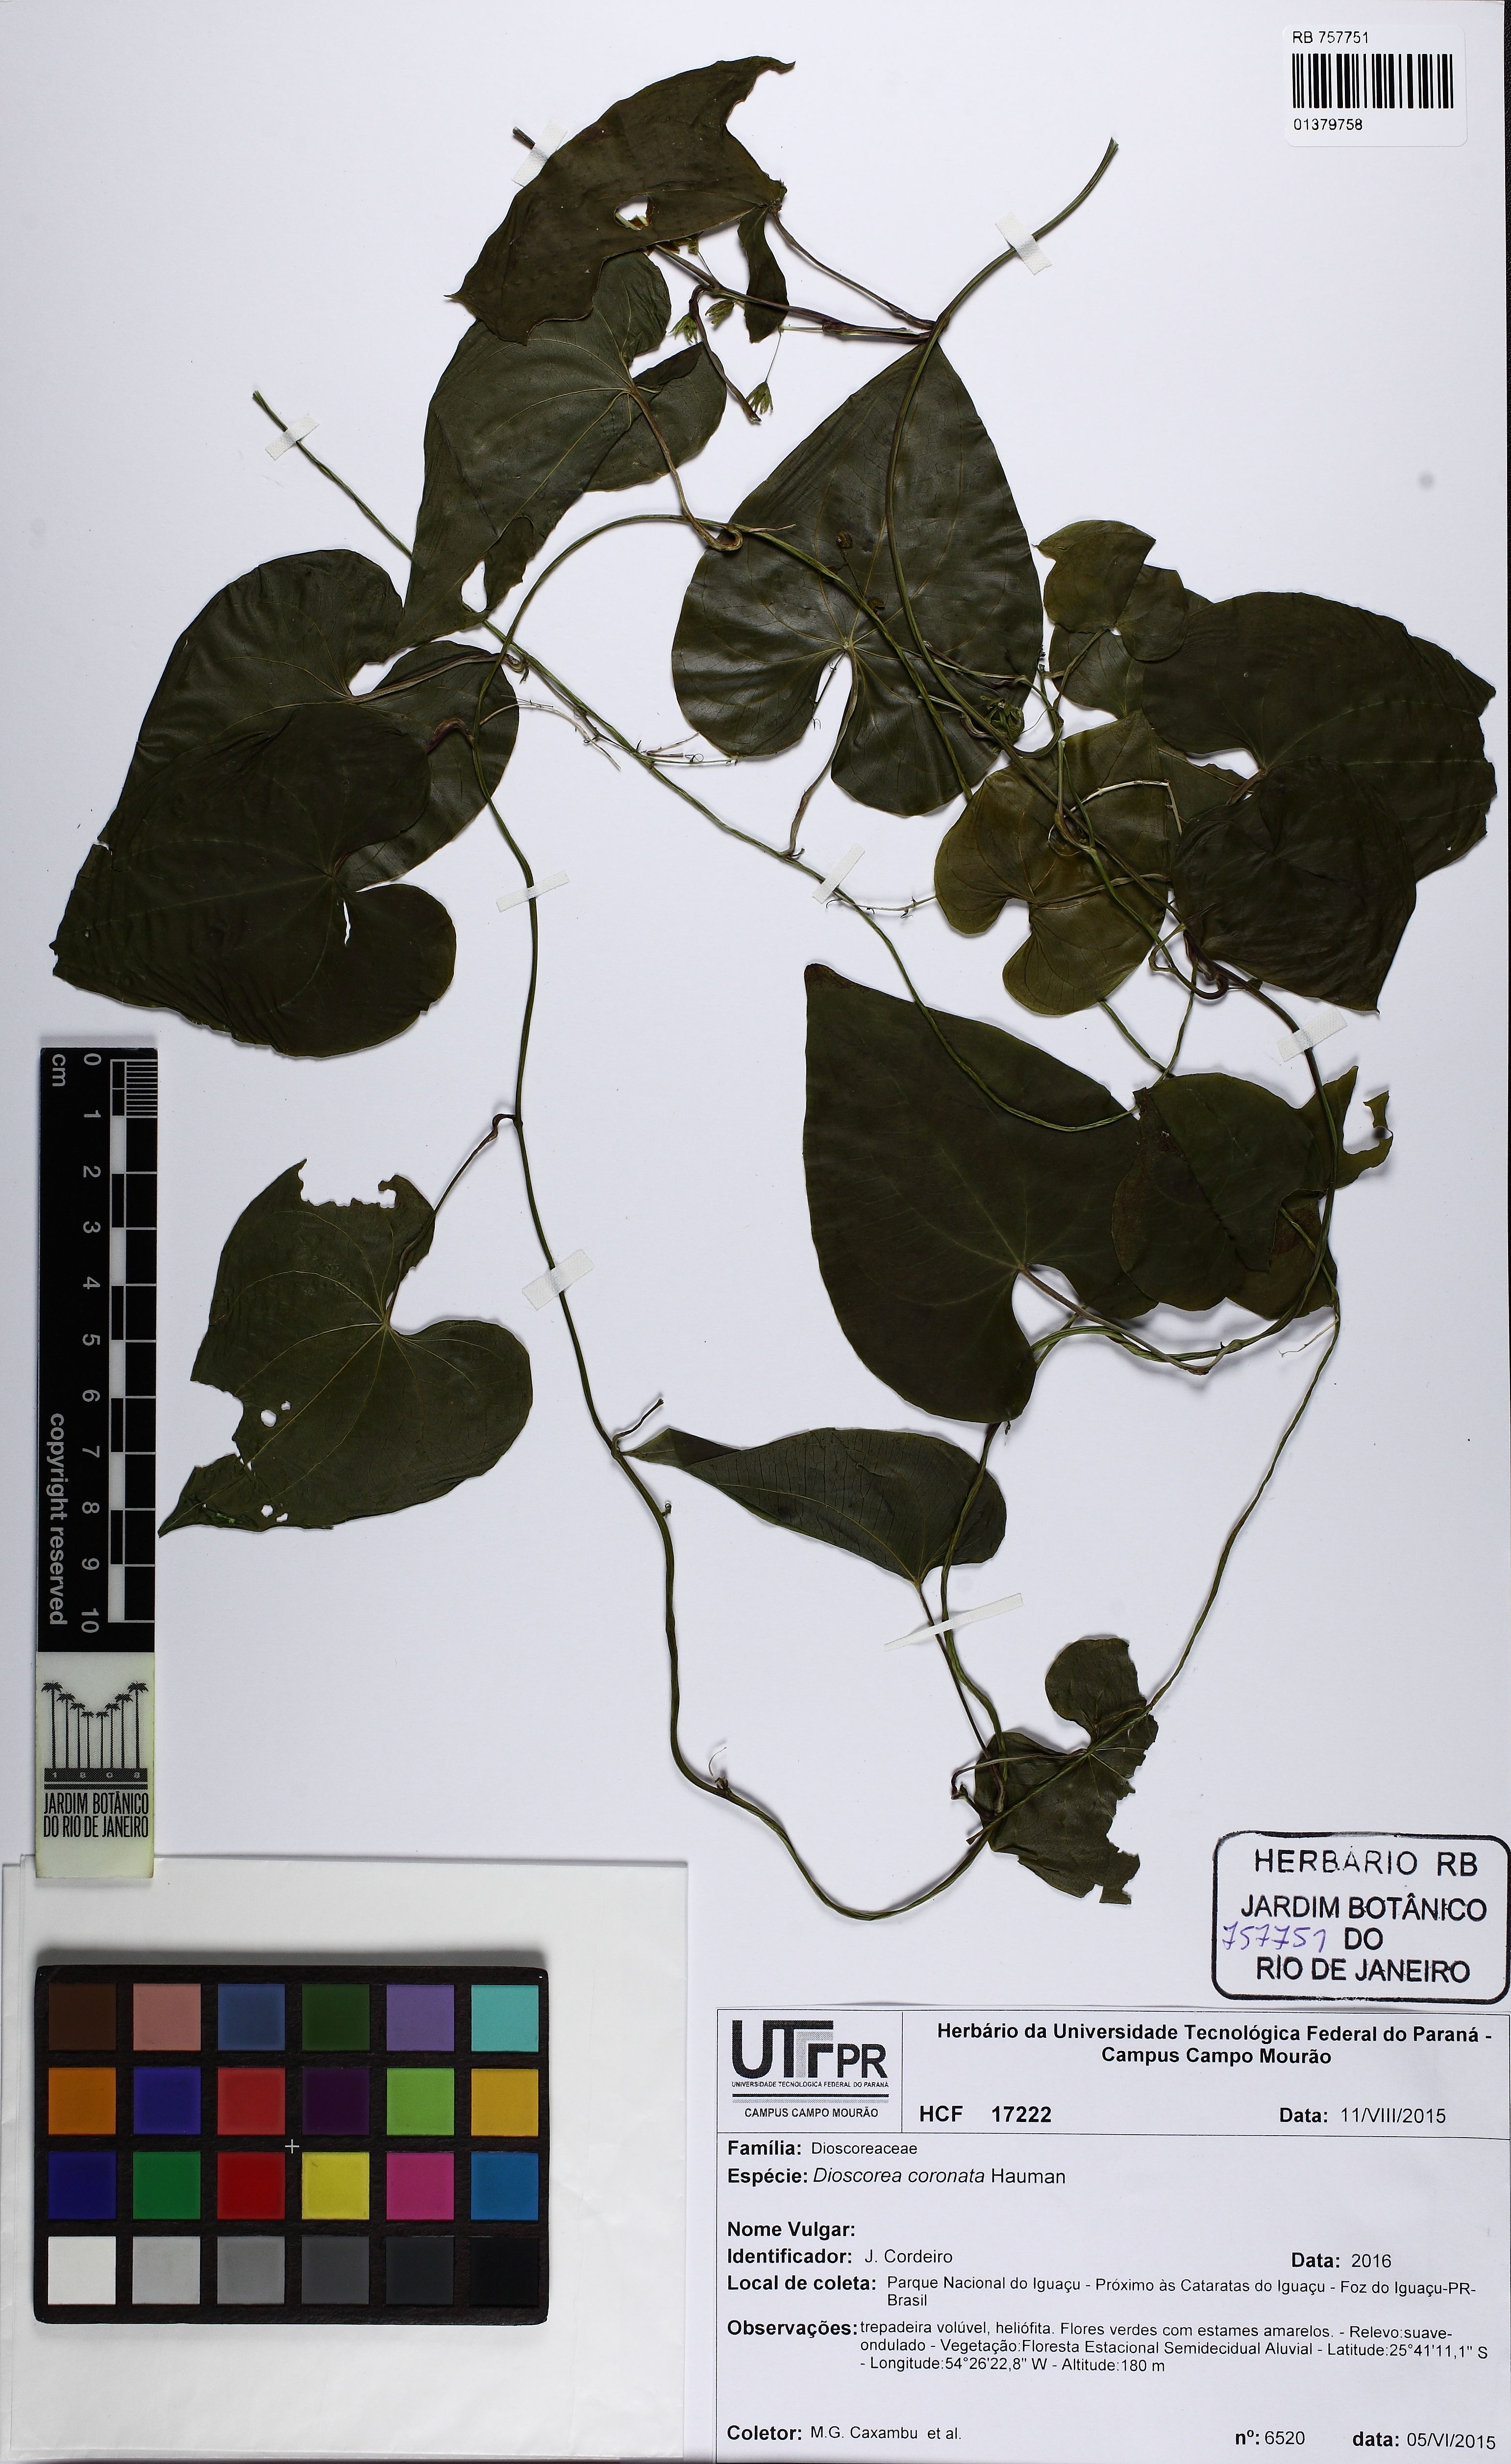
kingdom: Plantae
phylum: Tracheophyta
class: Liliopsida
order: Dioscoreales
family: Dioscoreaceae
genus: Dioscorea
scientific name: Dioscorea coronata
